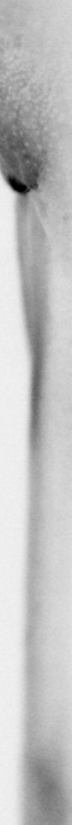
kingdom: Animalia
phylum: Chordata
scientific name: Chordata
